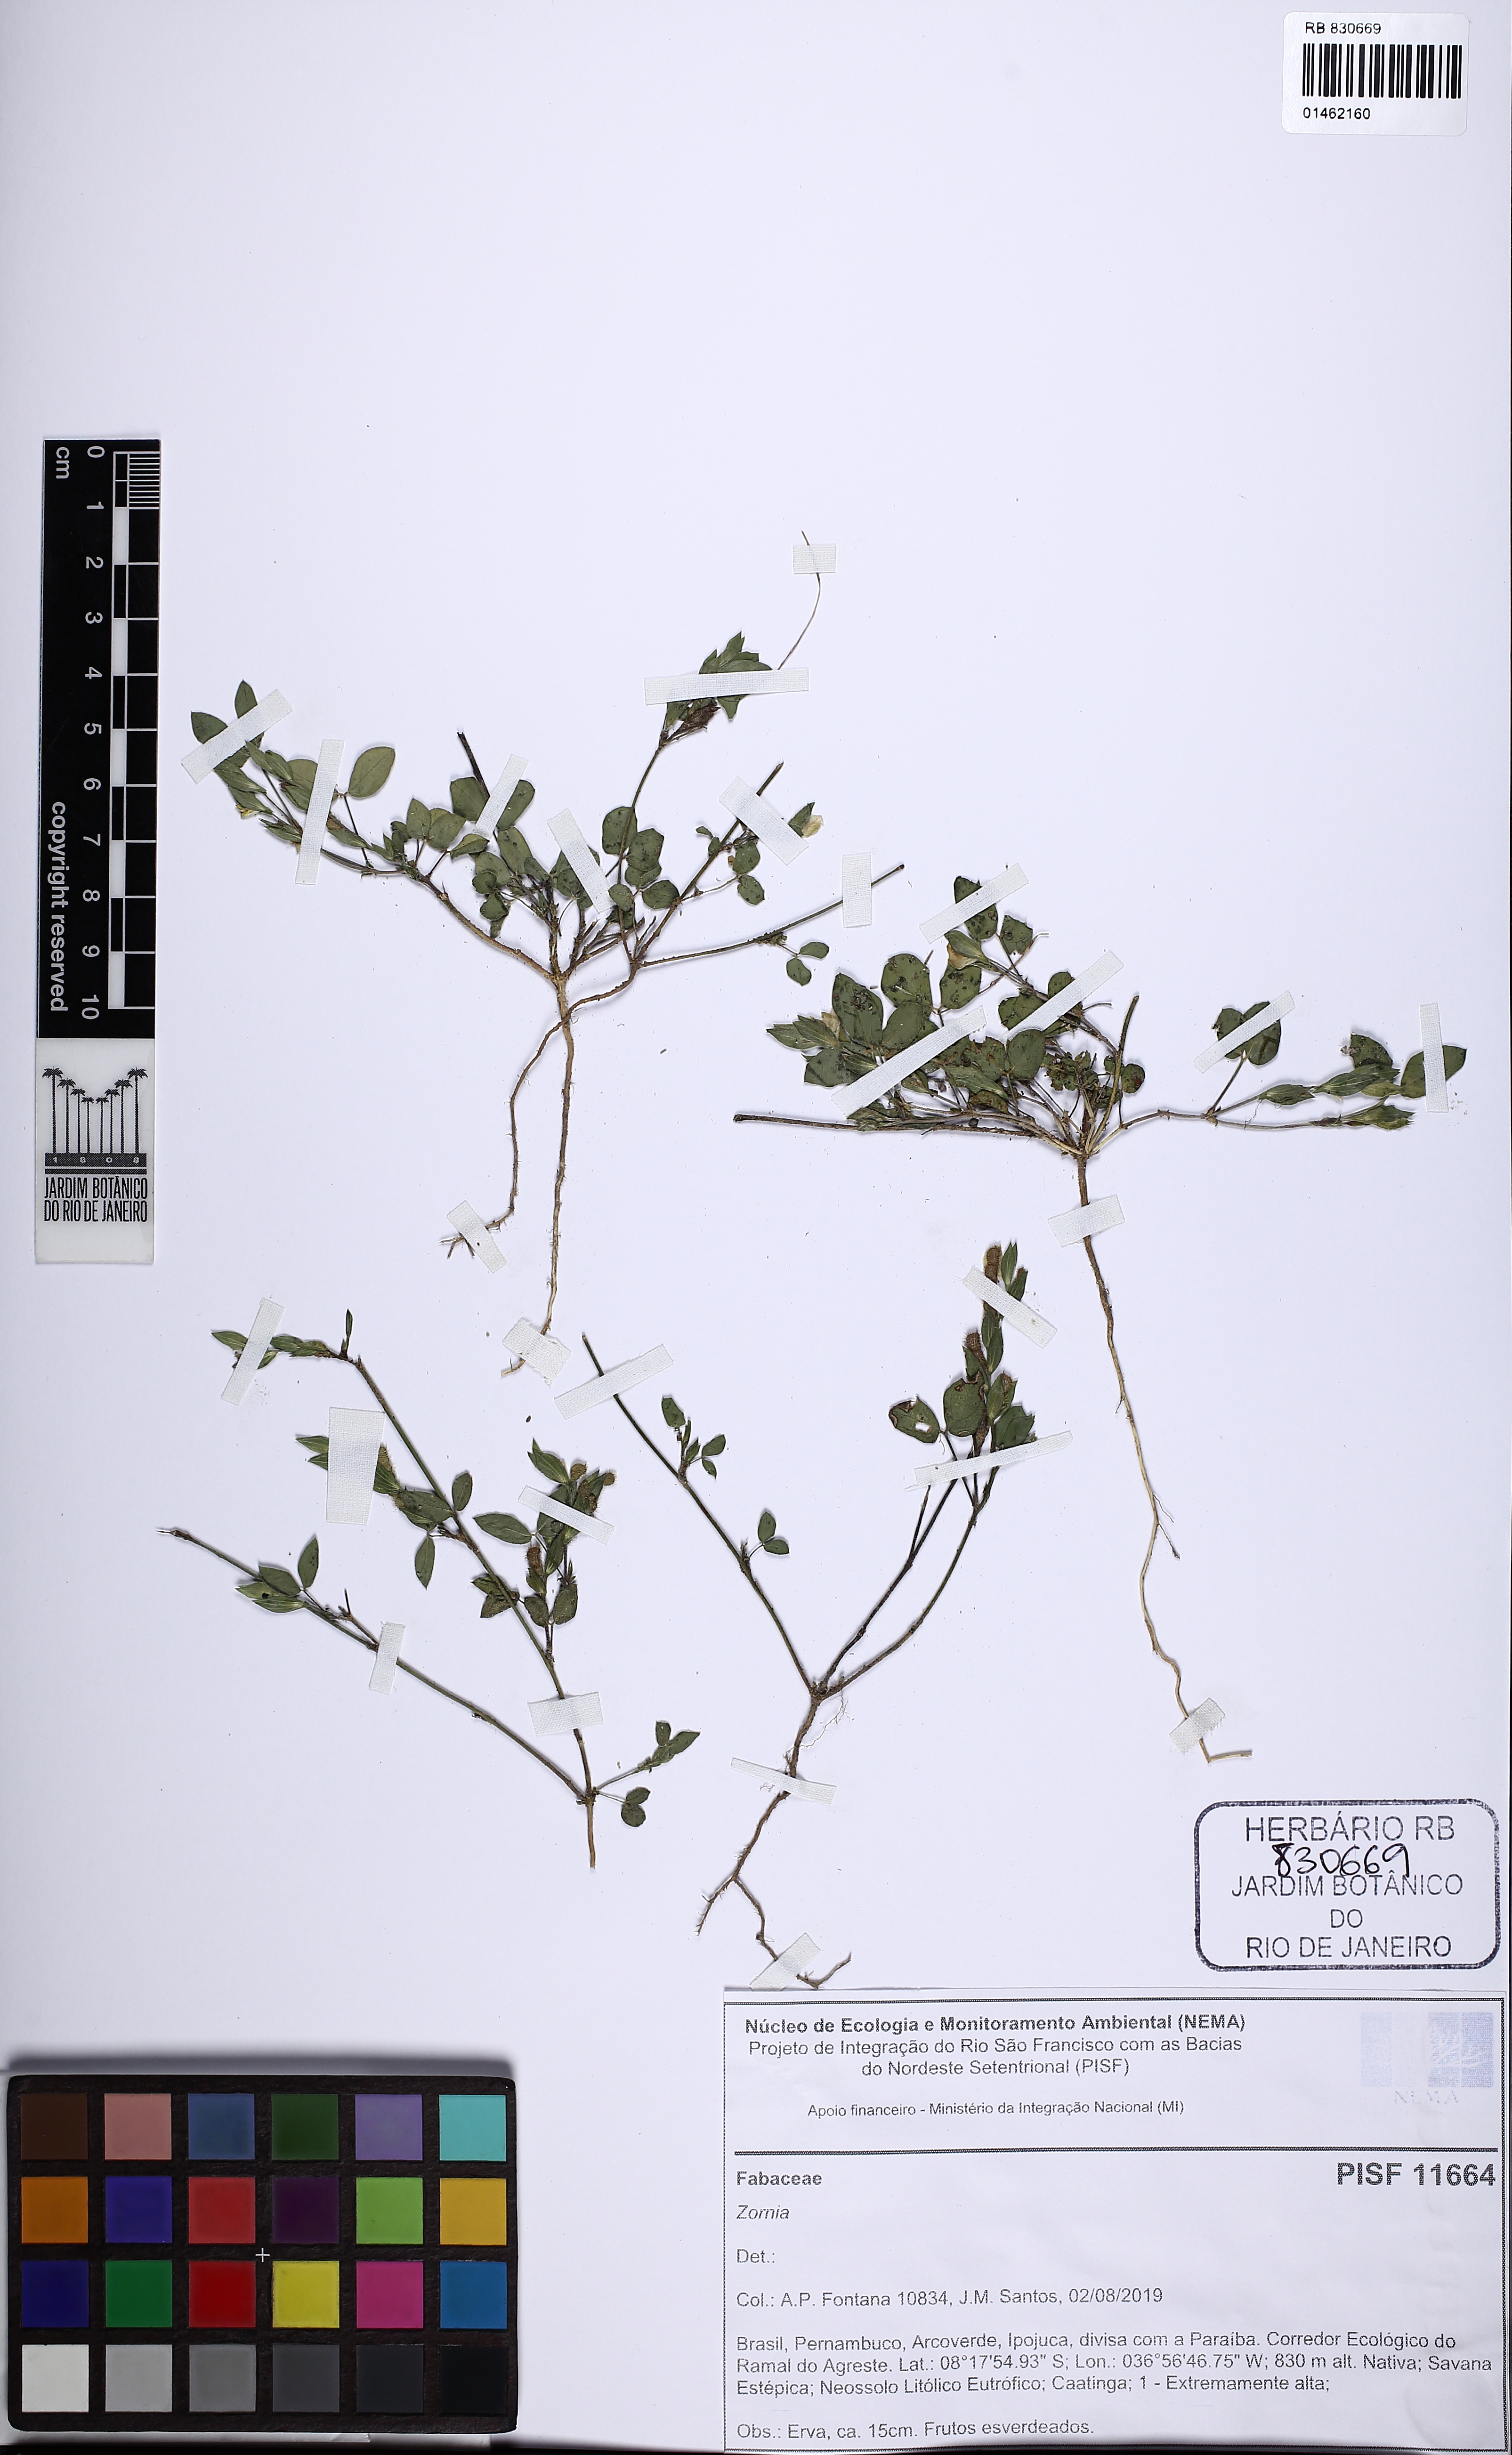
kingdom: Plantae
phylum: Tracheophyta
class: Magnoliopsida
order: Fabales
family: Fabaceae
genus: Zornia
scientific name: Zornia
